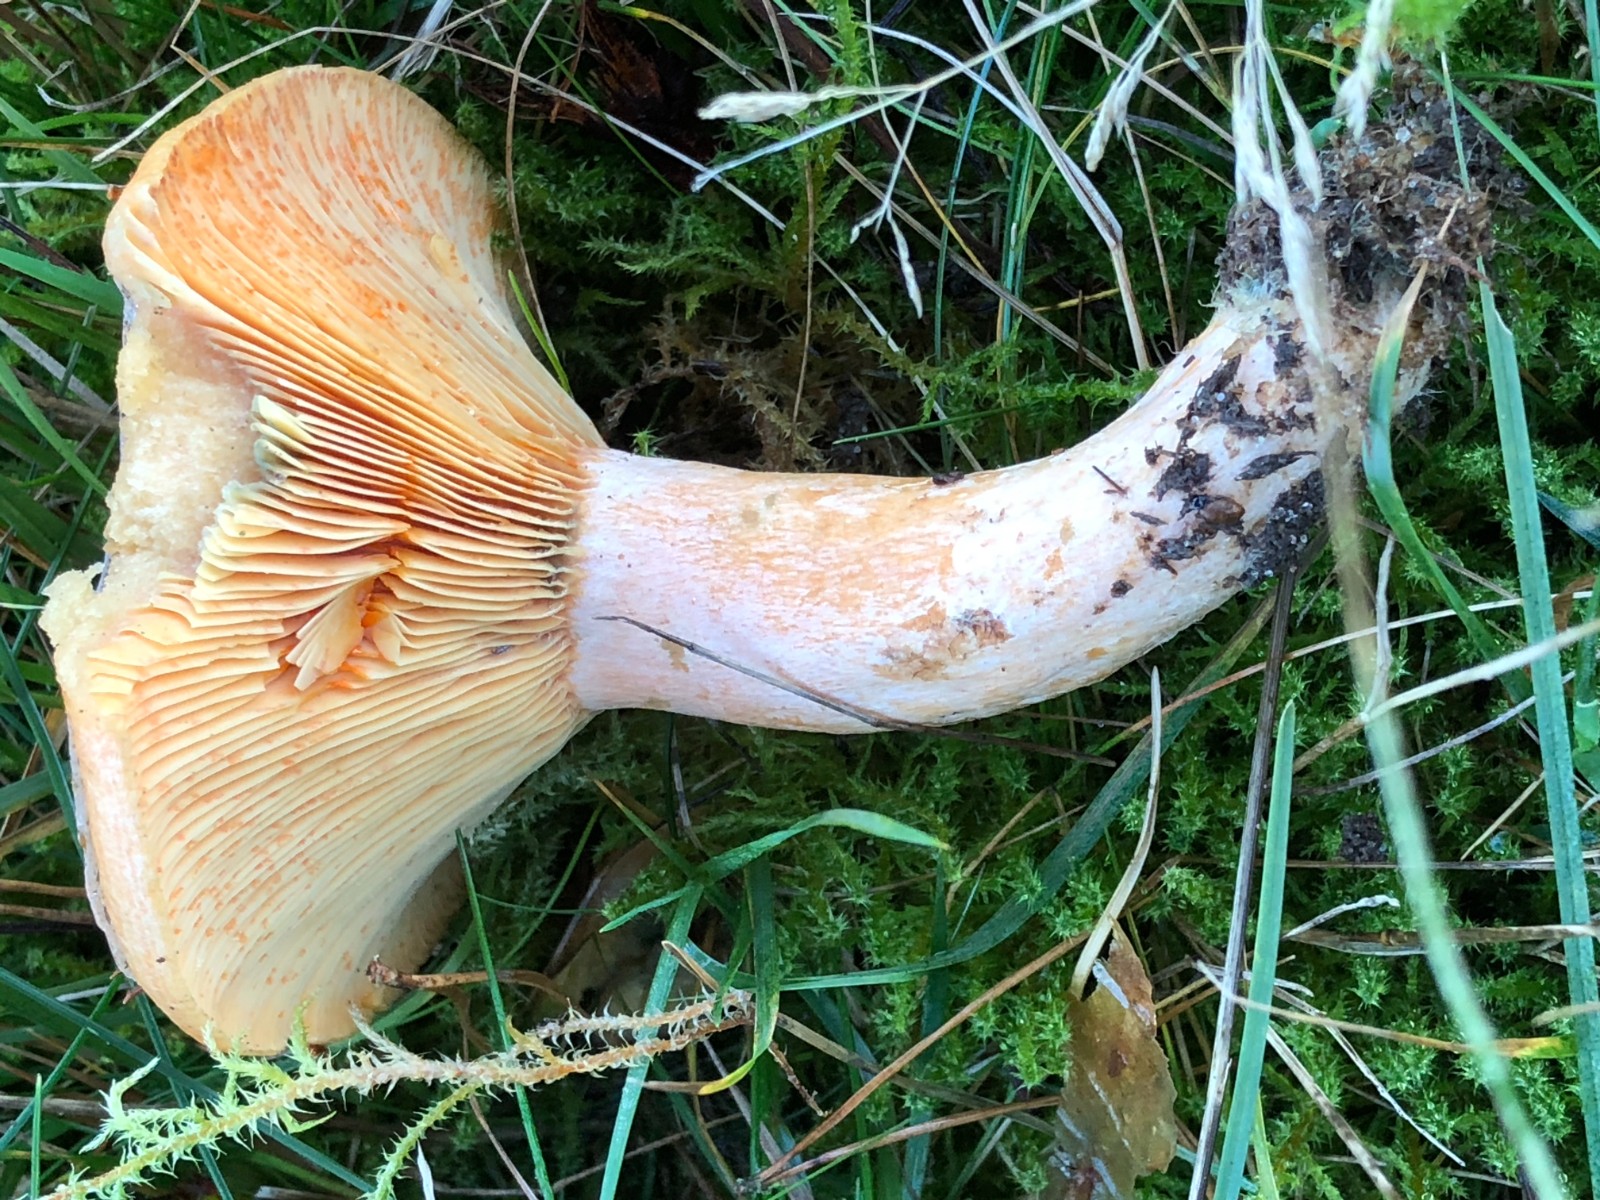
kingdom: Fungi
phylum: Basidiomycota
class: Agaricomycetes
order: Russulales
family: Russulaceae
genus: Lactarius
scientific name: Lactarius quieticolor
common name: tvefarvet mælkehat
